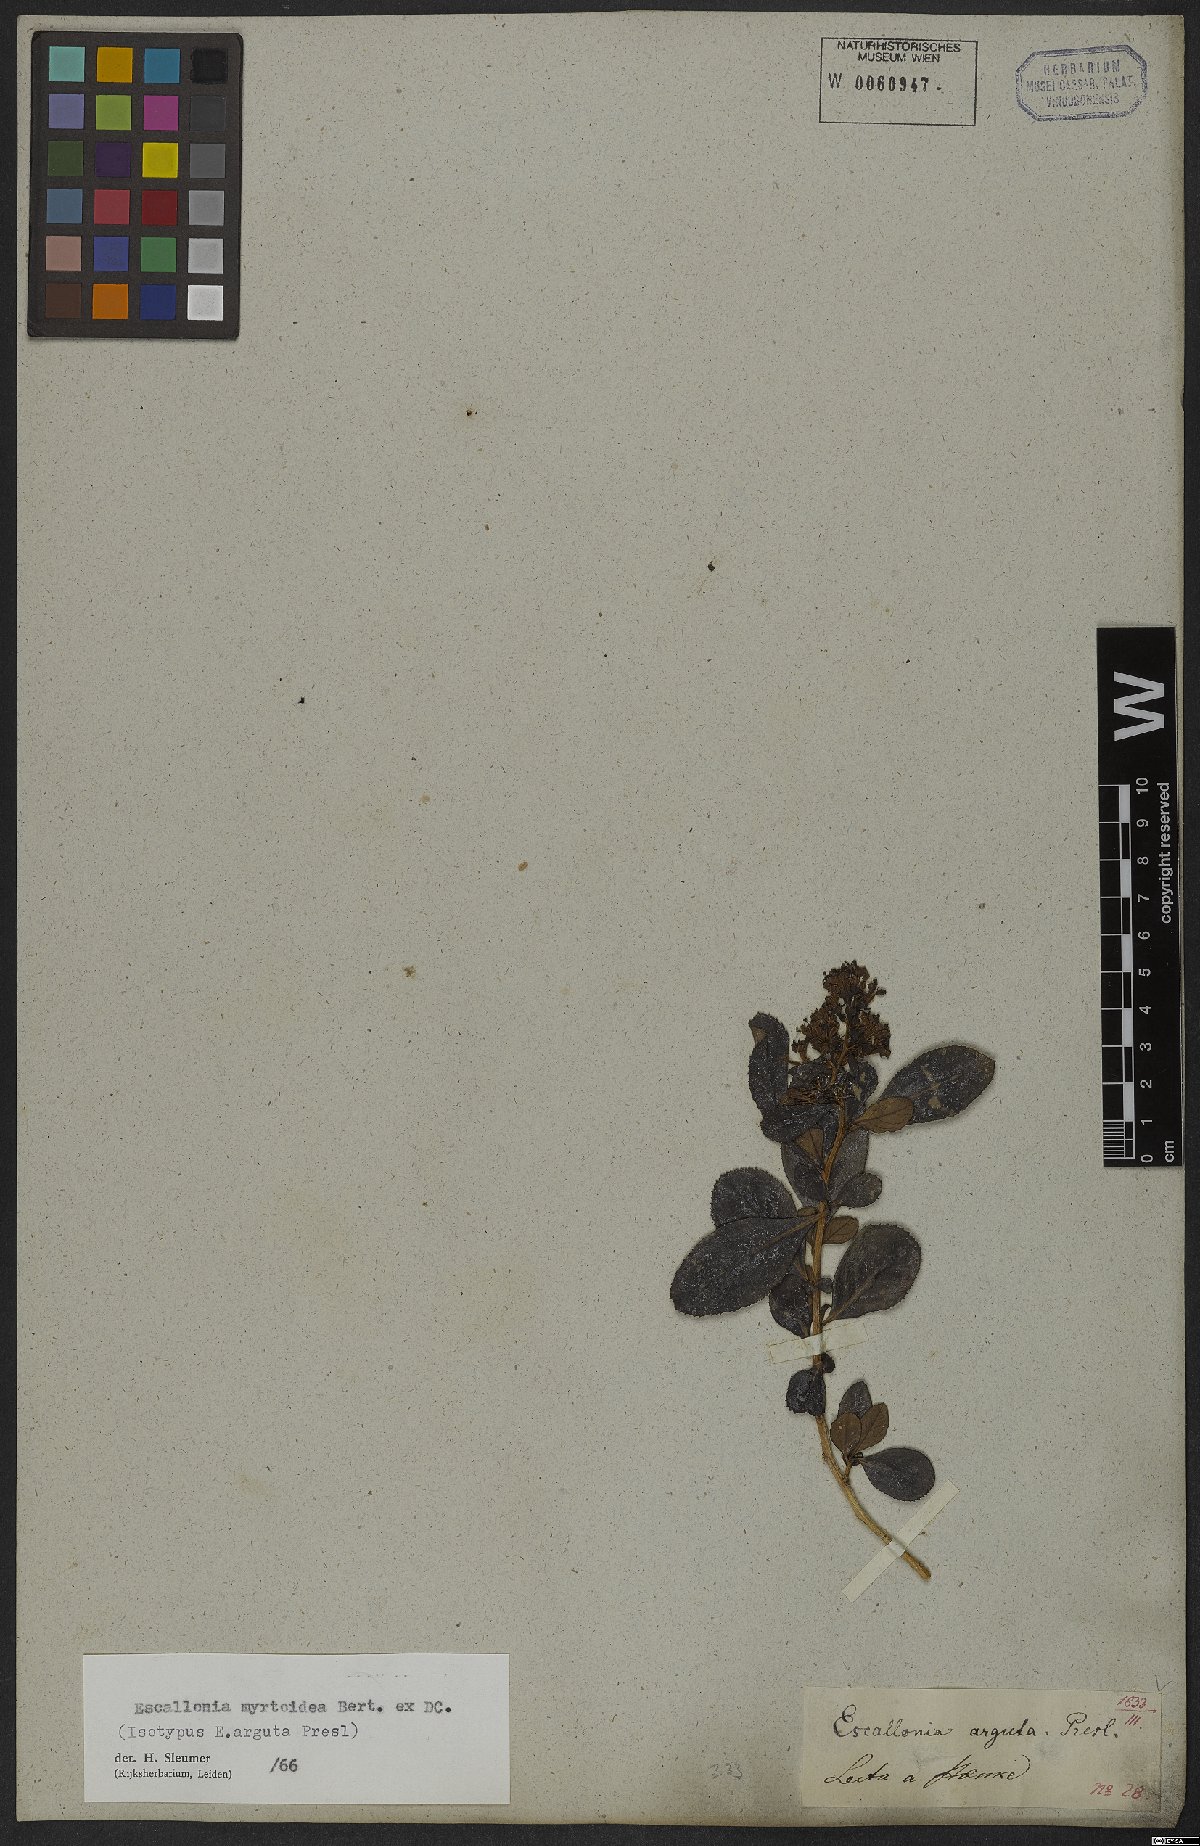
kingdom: Plantae
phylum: Tracheophyta
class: Magnoliopsida
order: Escalloniales
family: Escalloniaceae
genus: Escallonia
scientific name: Escallonia myrtoidea
